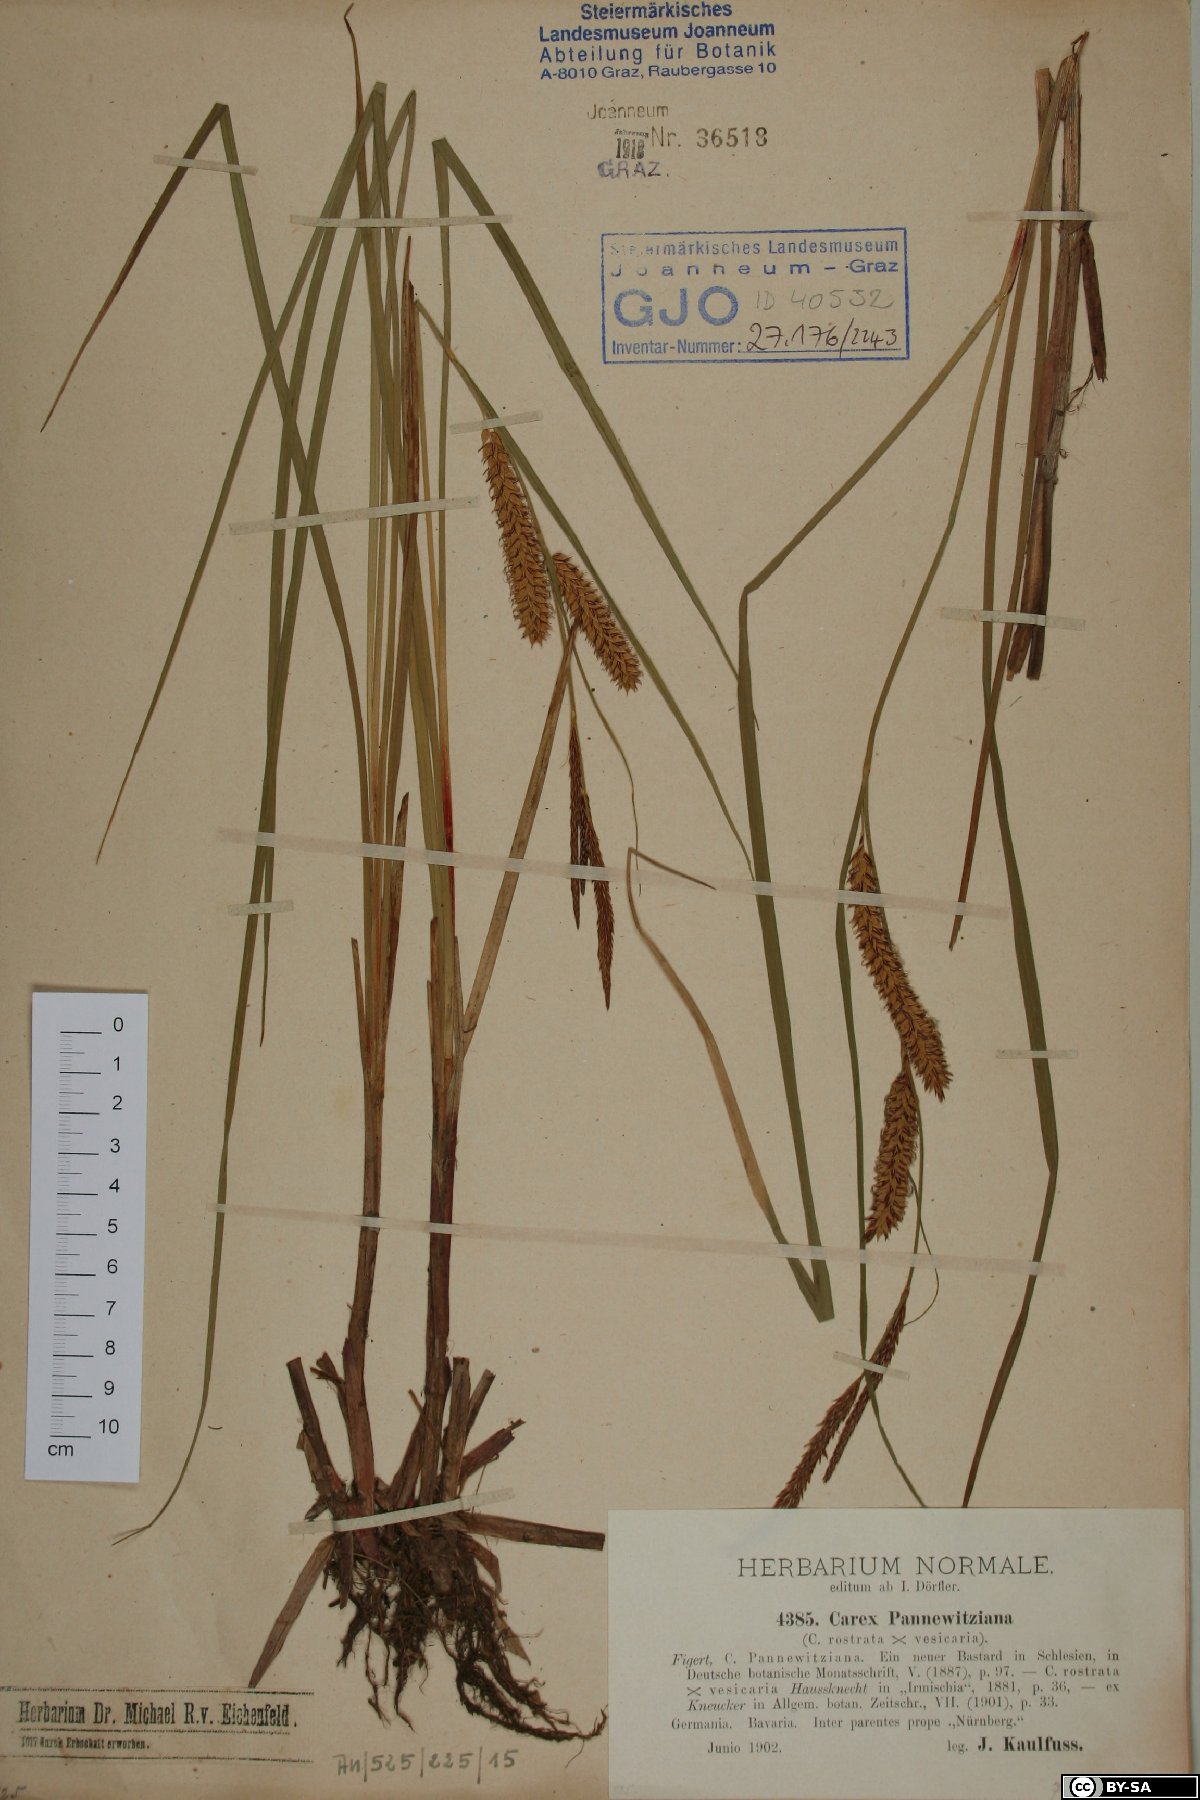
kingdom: Plantae
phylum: Tracheophyta
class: Liliopsida
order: Poales
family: Cyperaceae
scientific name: Cyperaceae
